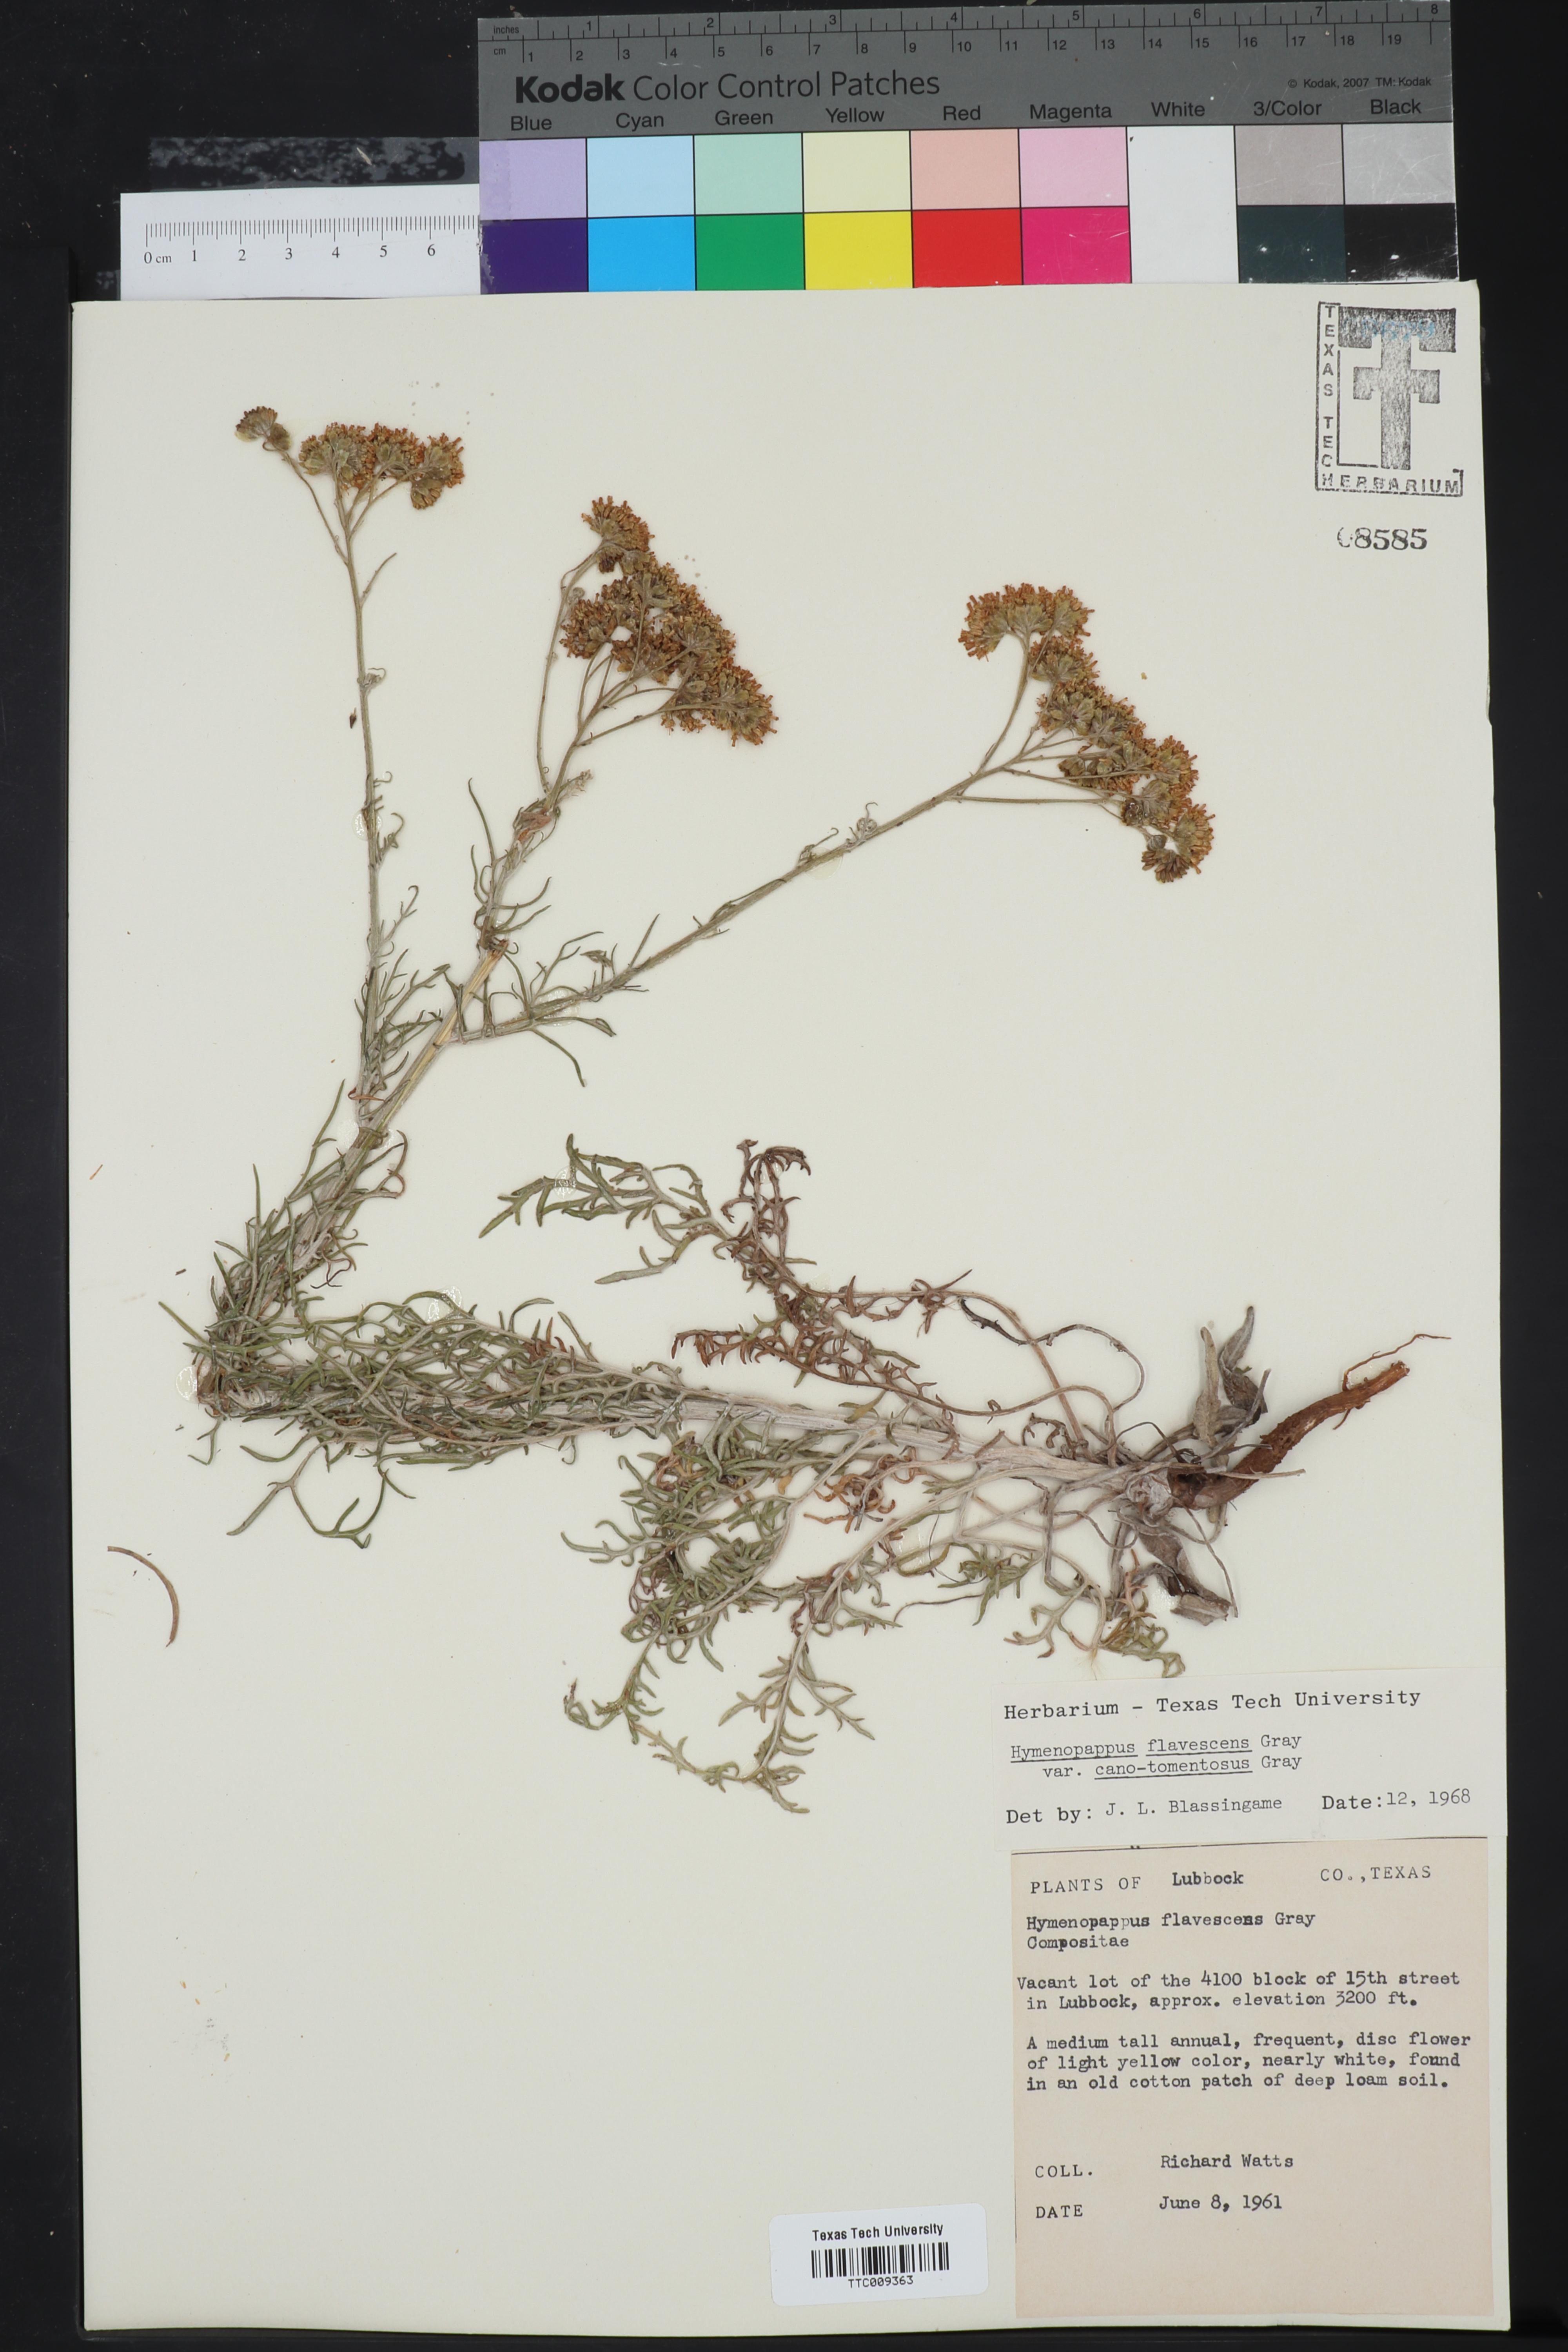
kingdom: Plantae
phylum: Tracheophyta
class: Magnoliopsida
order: Asterales
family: Asteraceae
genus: Hymenopappus
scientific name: Hymenopappus flavescens
